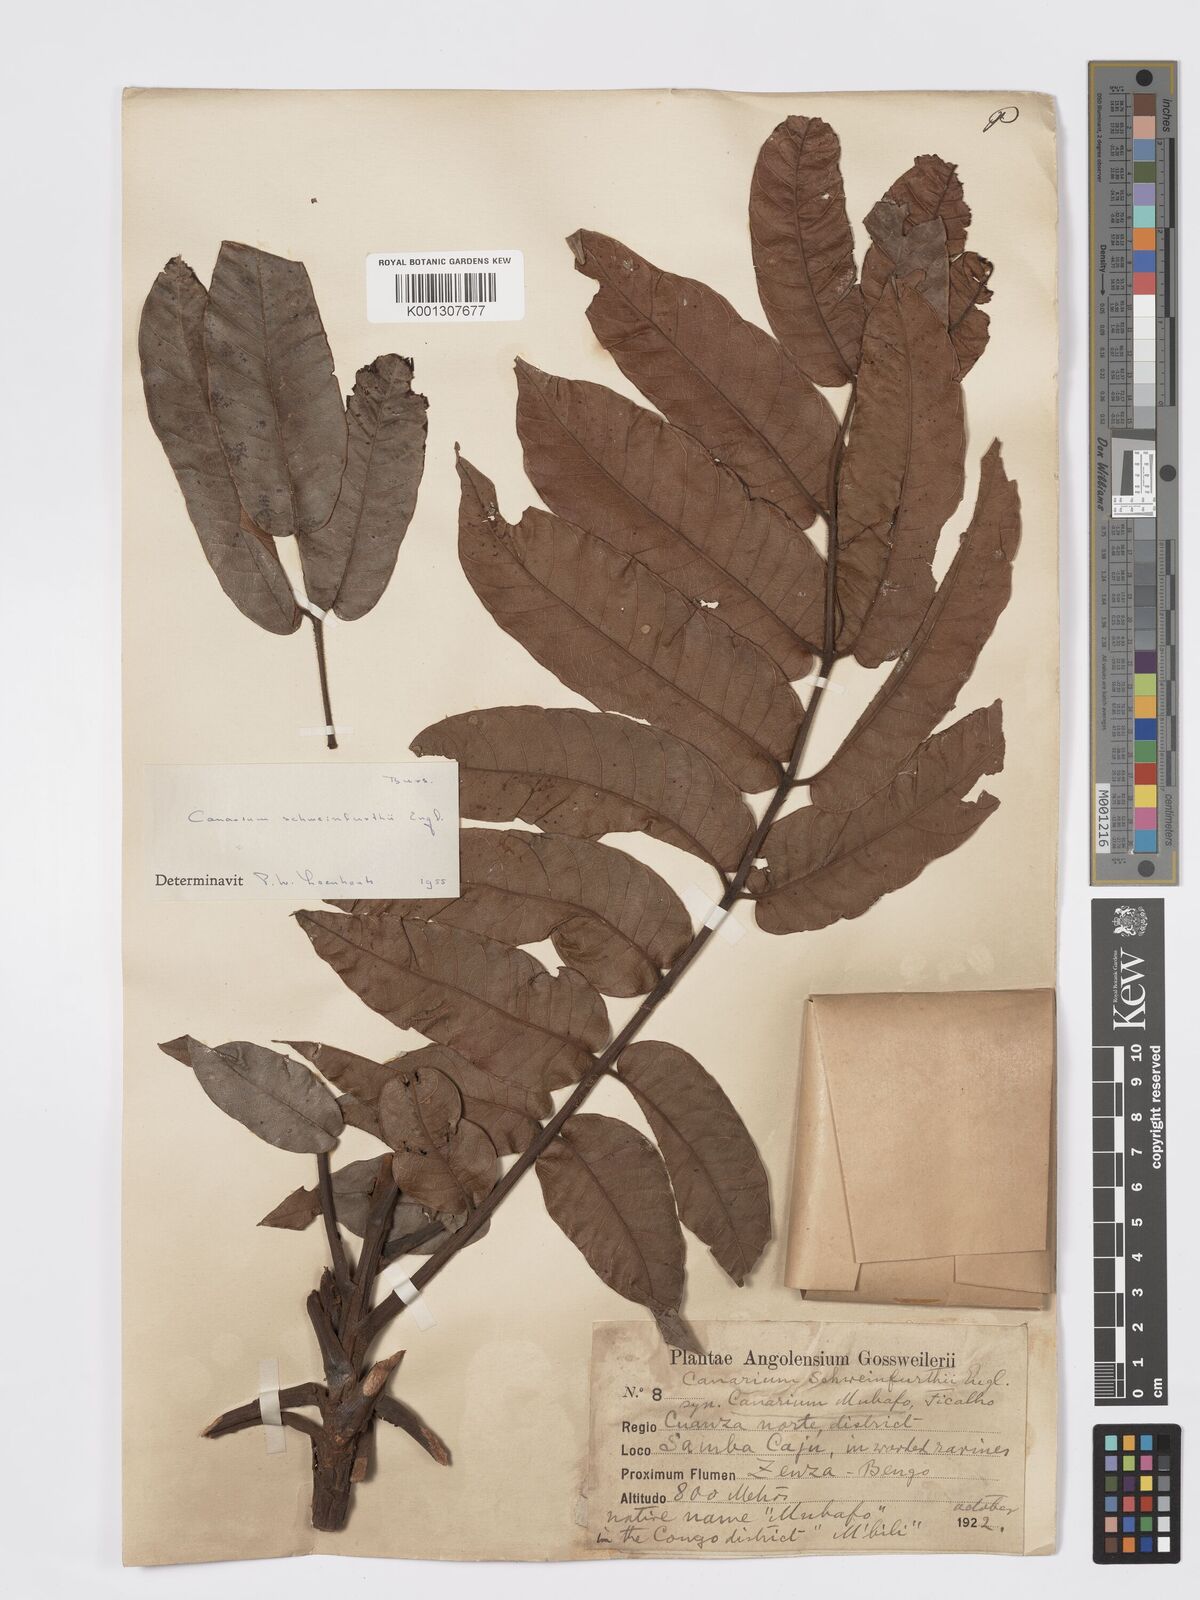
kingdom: Plantae
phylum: Tracheophyta
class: Magnoliopsida
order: Sapindales
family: Burseraceae
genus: Canarium
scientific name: Canarium schweinfurthii
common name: African elemi
